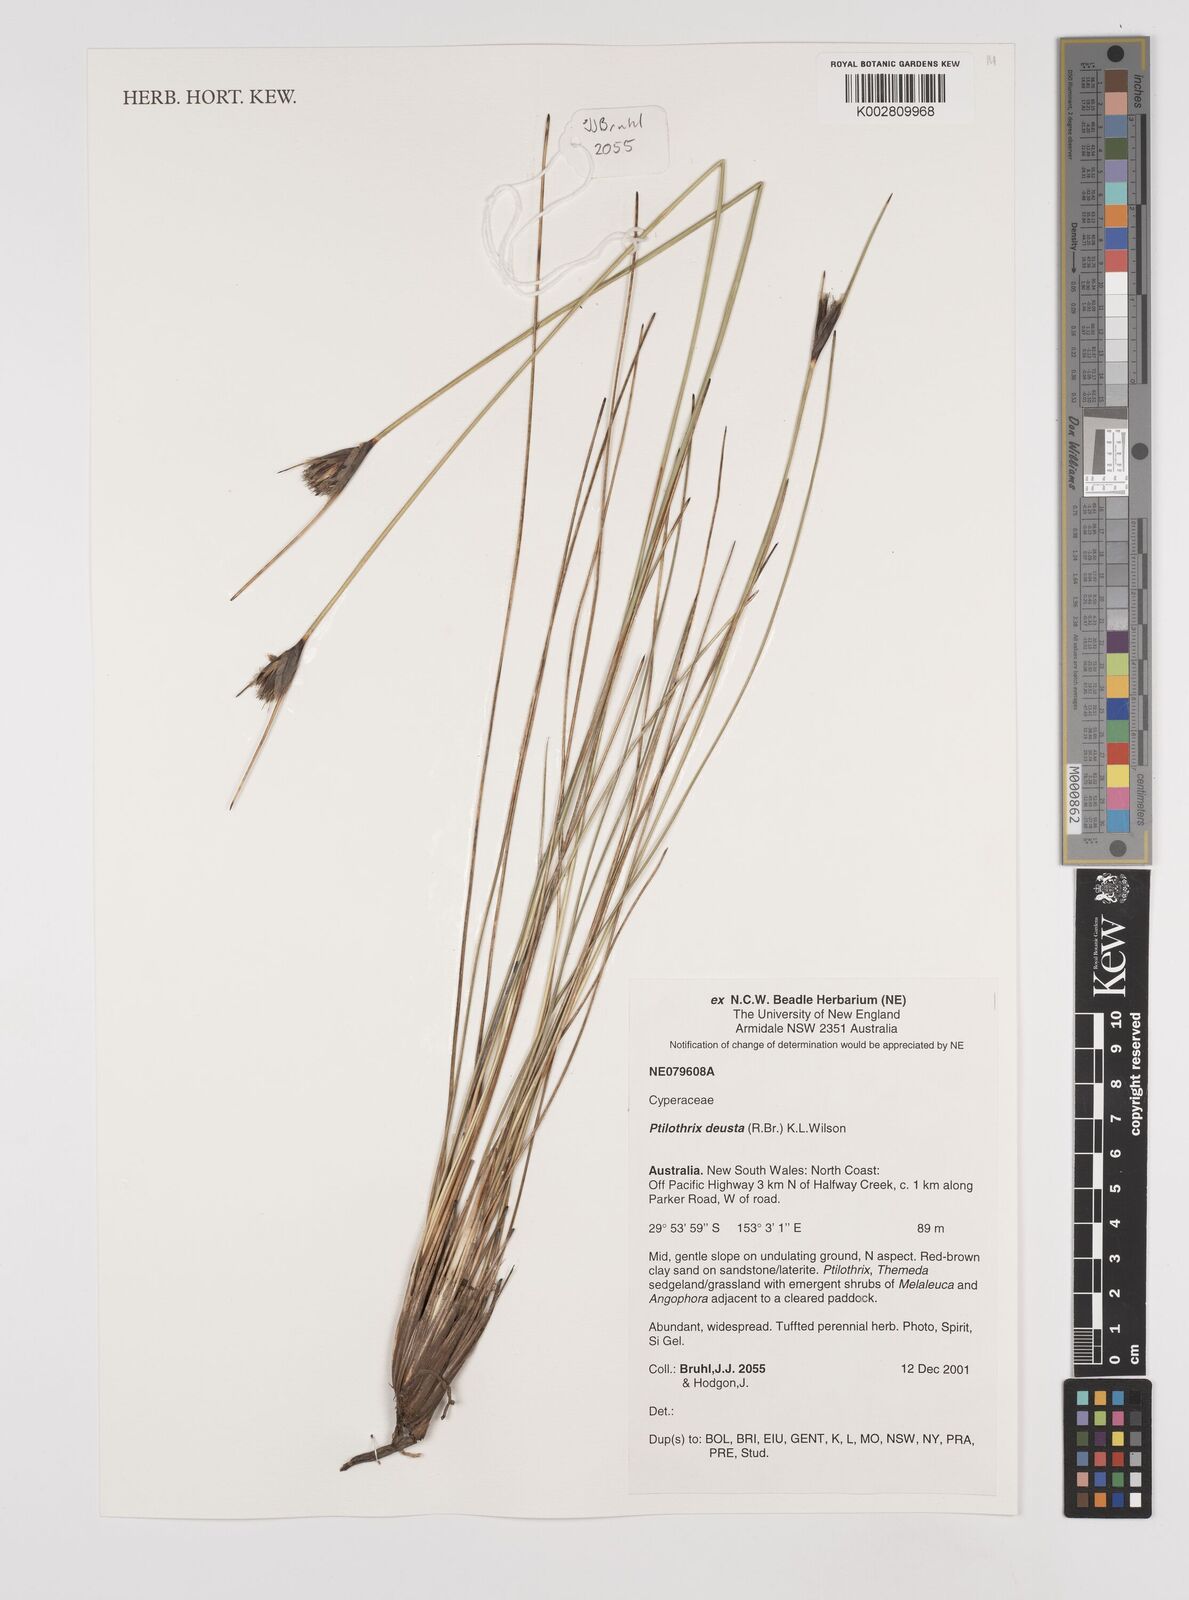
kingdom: Plantae
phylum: Tracheophyta
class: Liliopsida
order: Poales
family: Cyperaceae
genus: Ptilothrix
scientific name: Ptilothrix deusta
